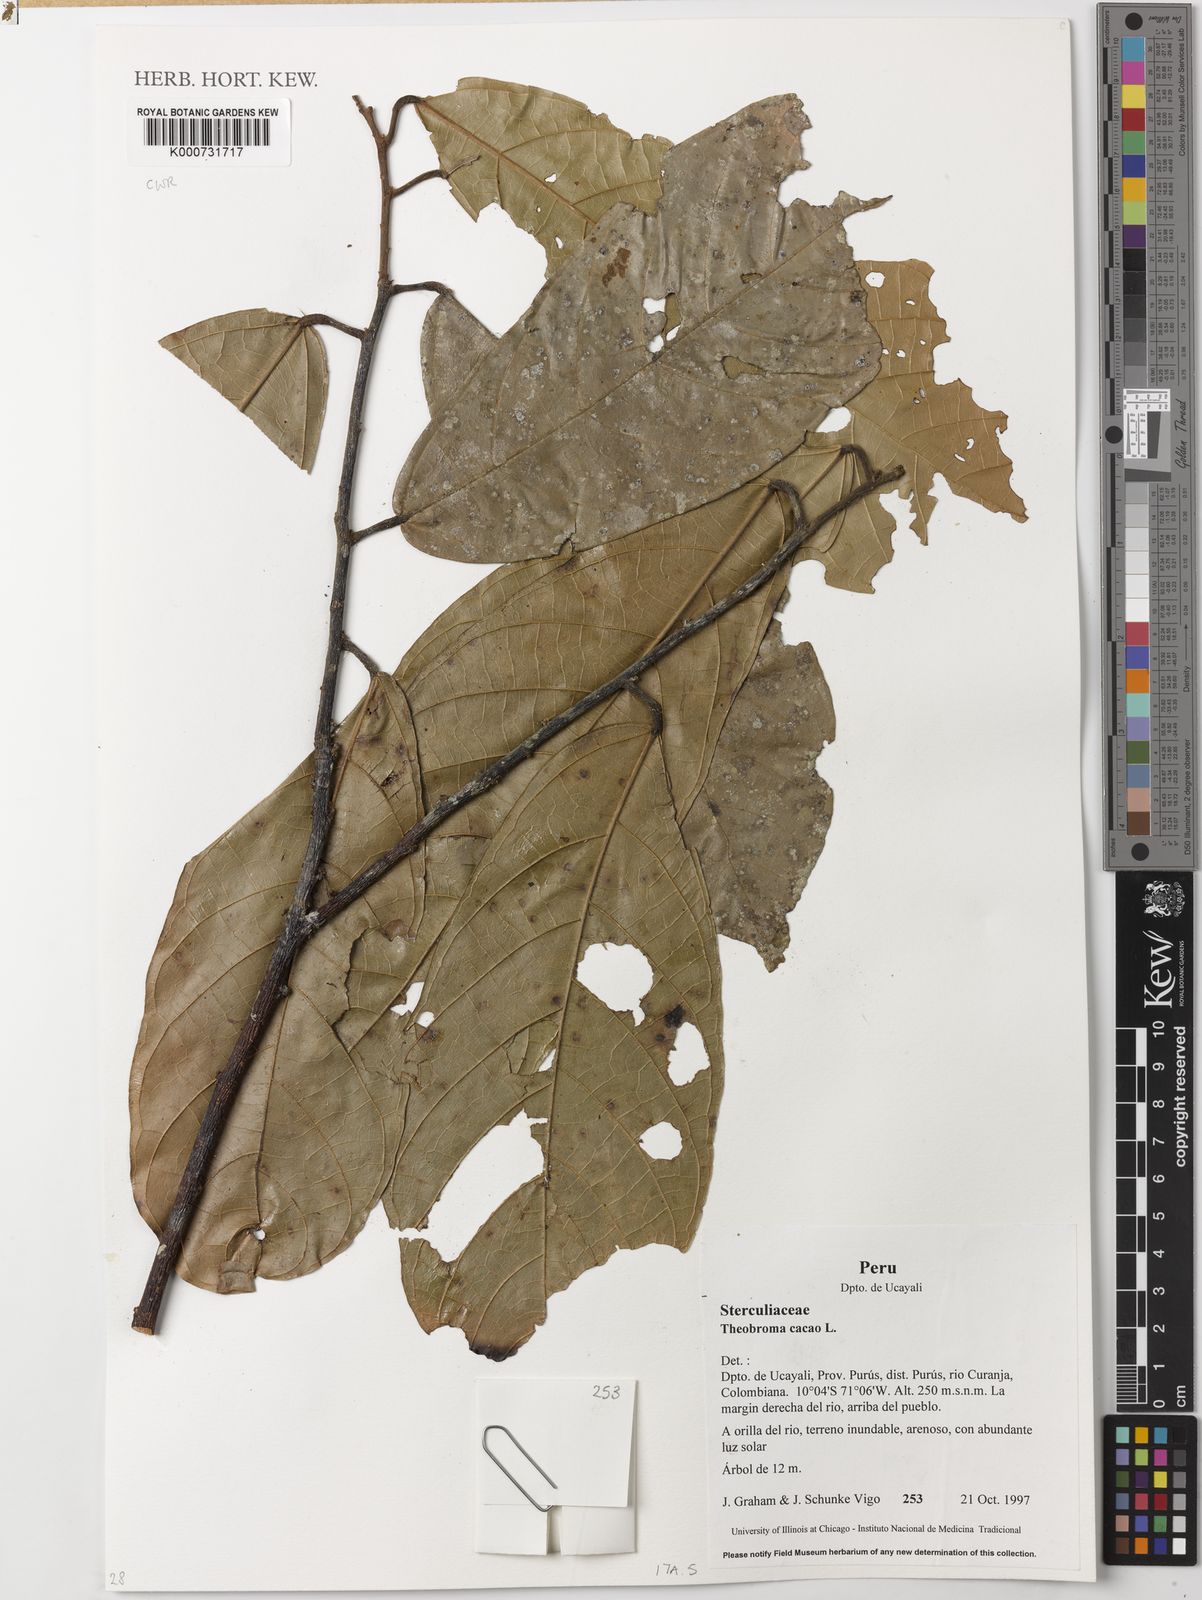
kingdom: Plantae
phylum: Tracheophyta
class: Magnoliopsida
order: Malvales
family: Malvaceae
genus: Theobroma
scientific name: Theobroma cacao
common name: Cocoa
